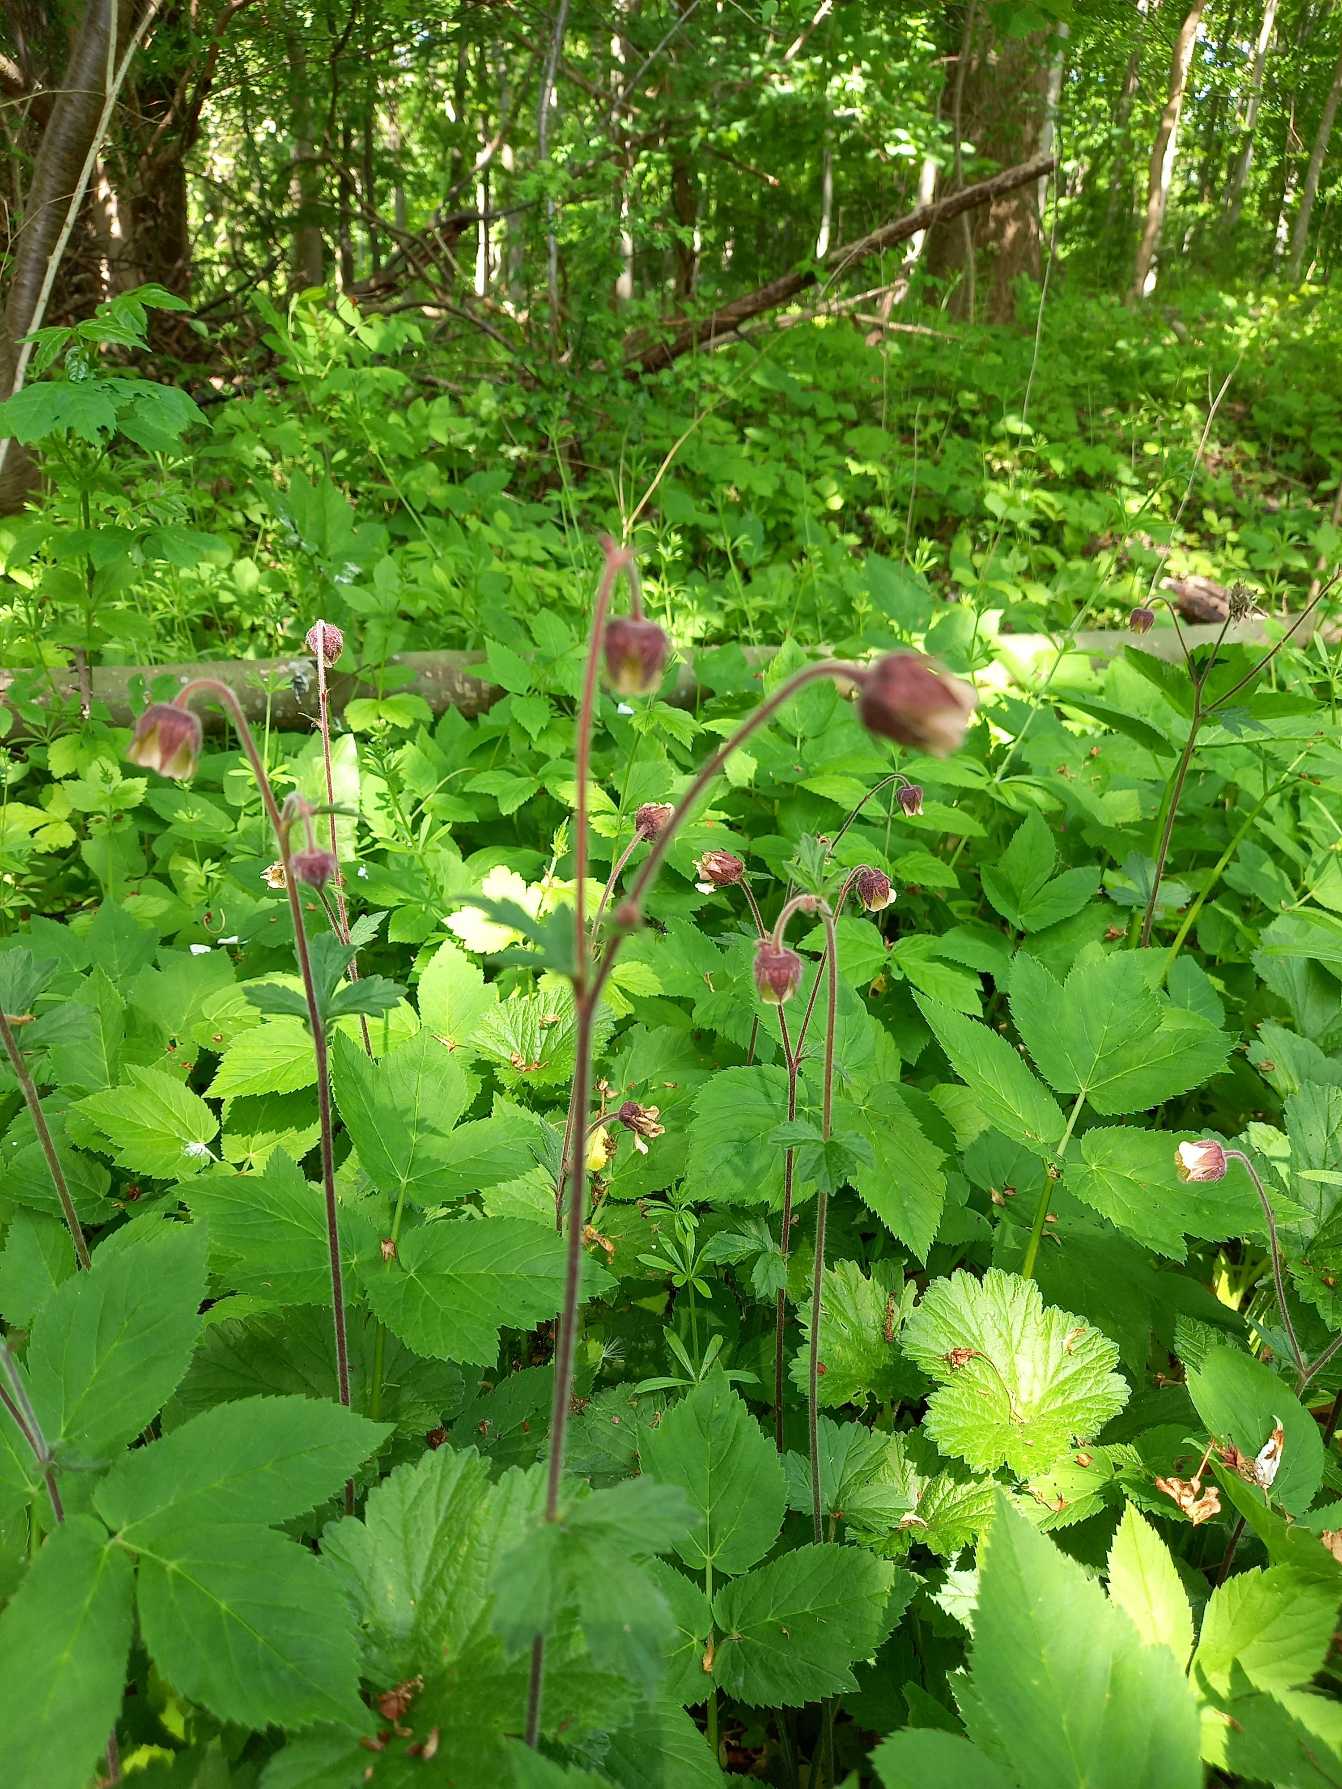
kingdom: Plantae
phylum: Tracheophyta
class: Magnoliopsida
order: Rosales
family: Rosaceae
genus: Geum
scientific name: Geum rivale
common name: Eng-nellikerod
